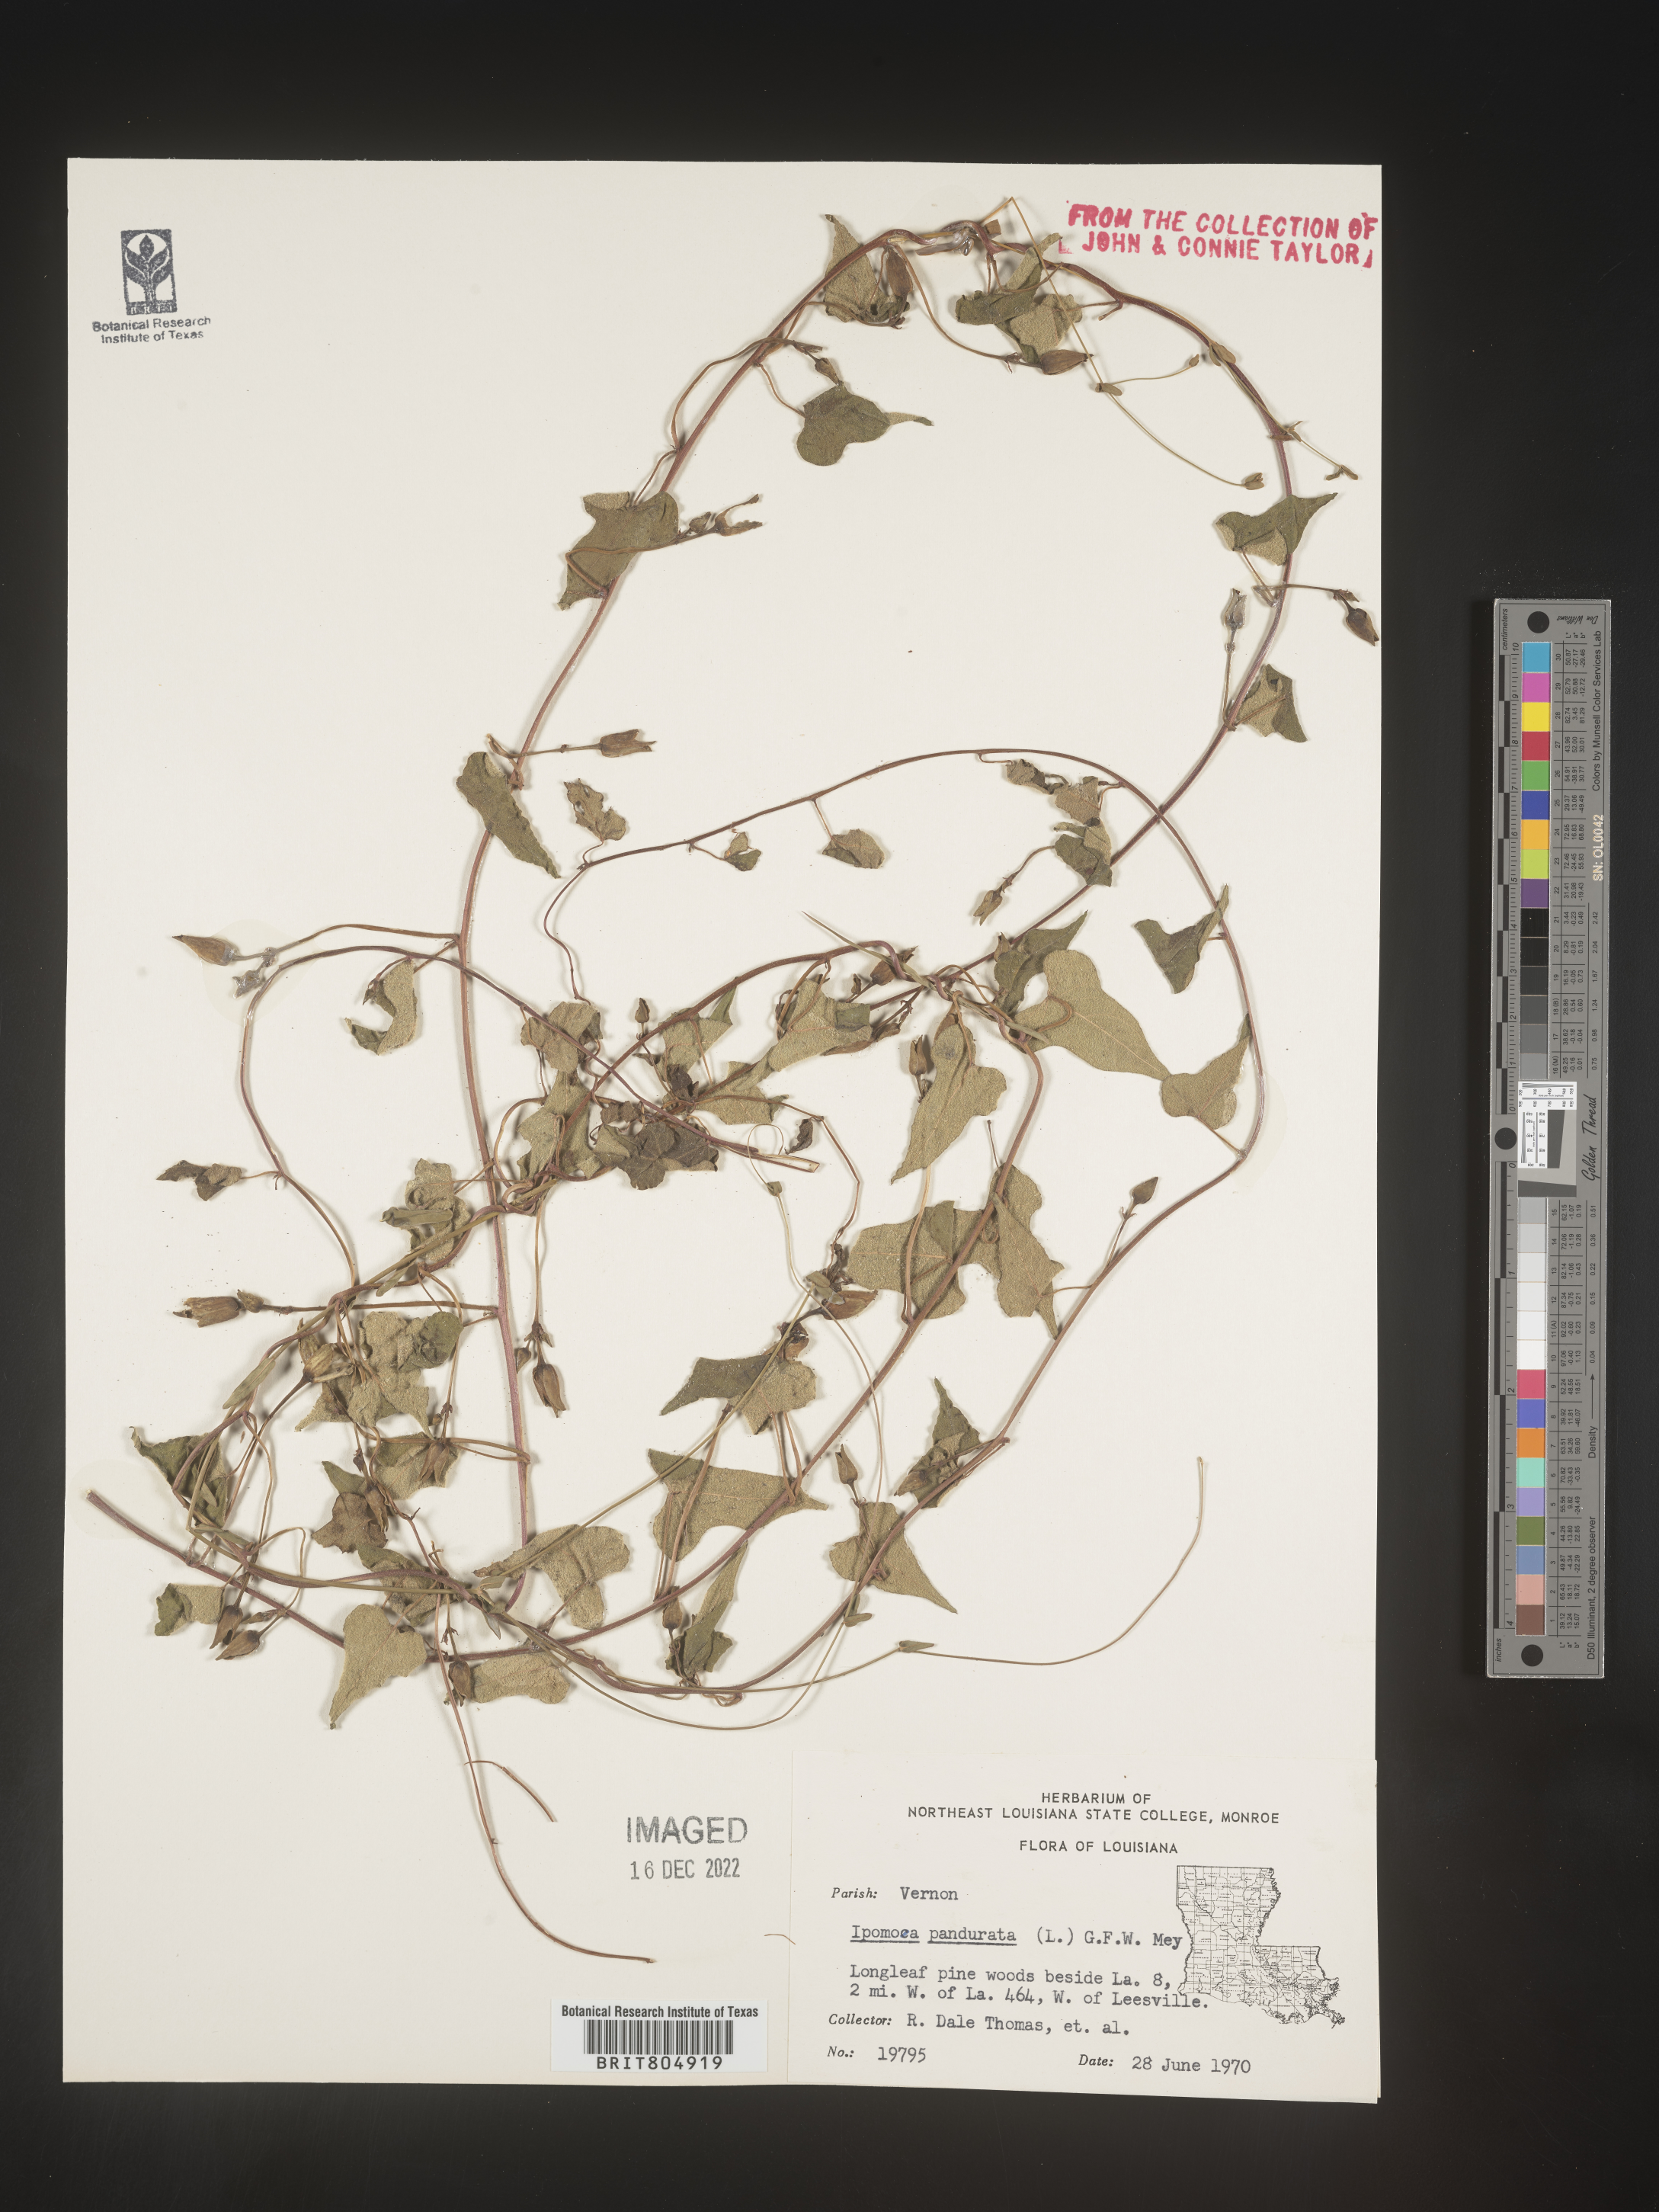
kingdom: Plantae
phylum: Tracheophyta
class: Magnoliopsida
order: Solanales
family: Convolvulaceae
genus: Ipomoea
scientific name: Ipomoea pandurata
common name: Man-of-the-earth
